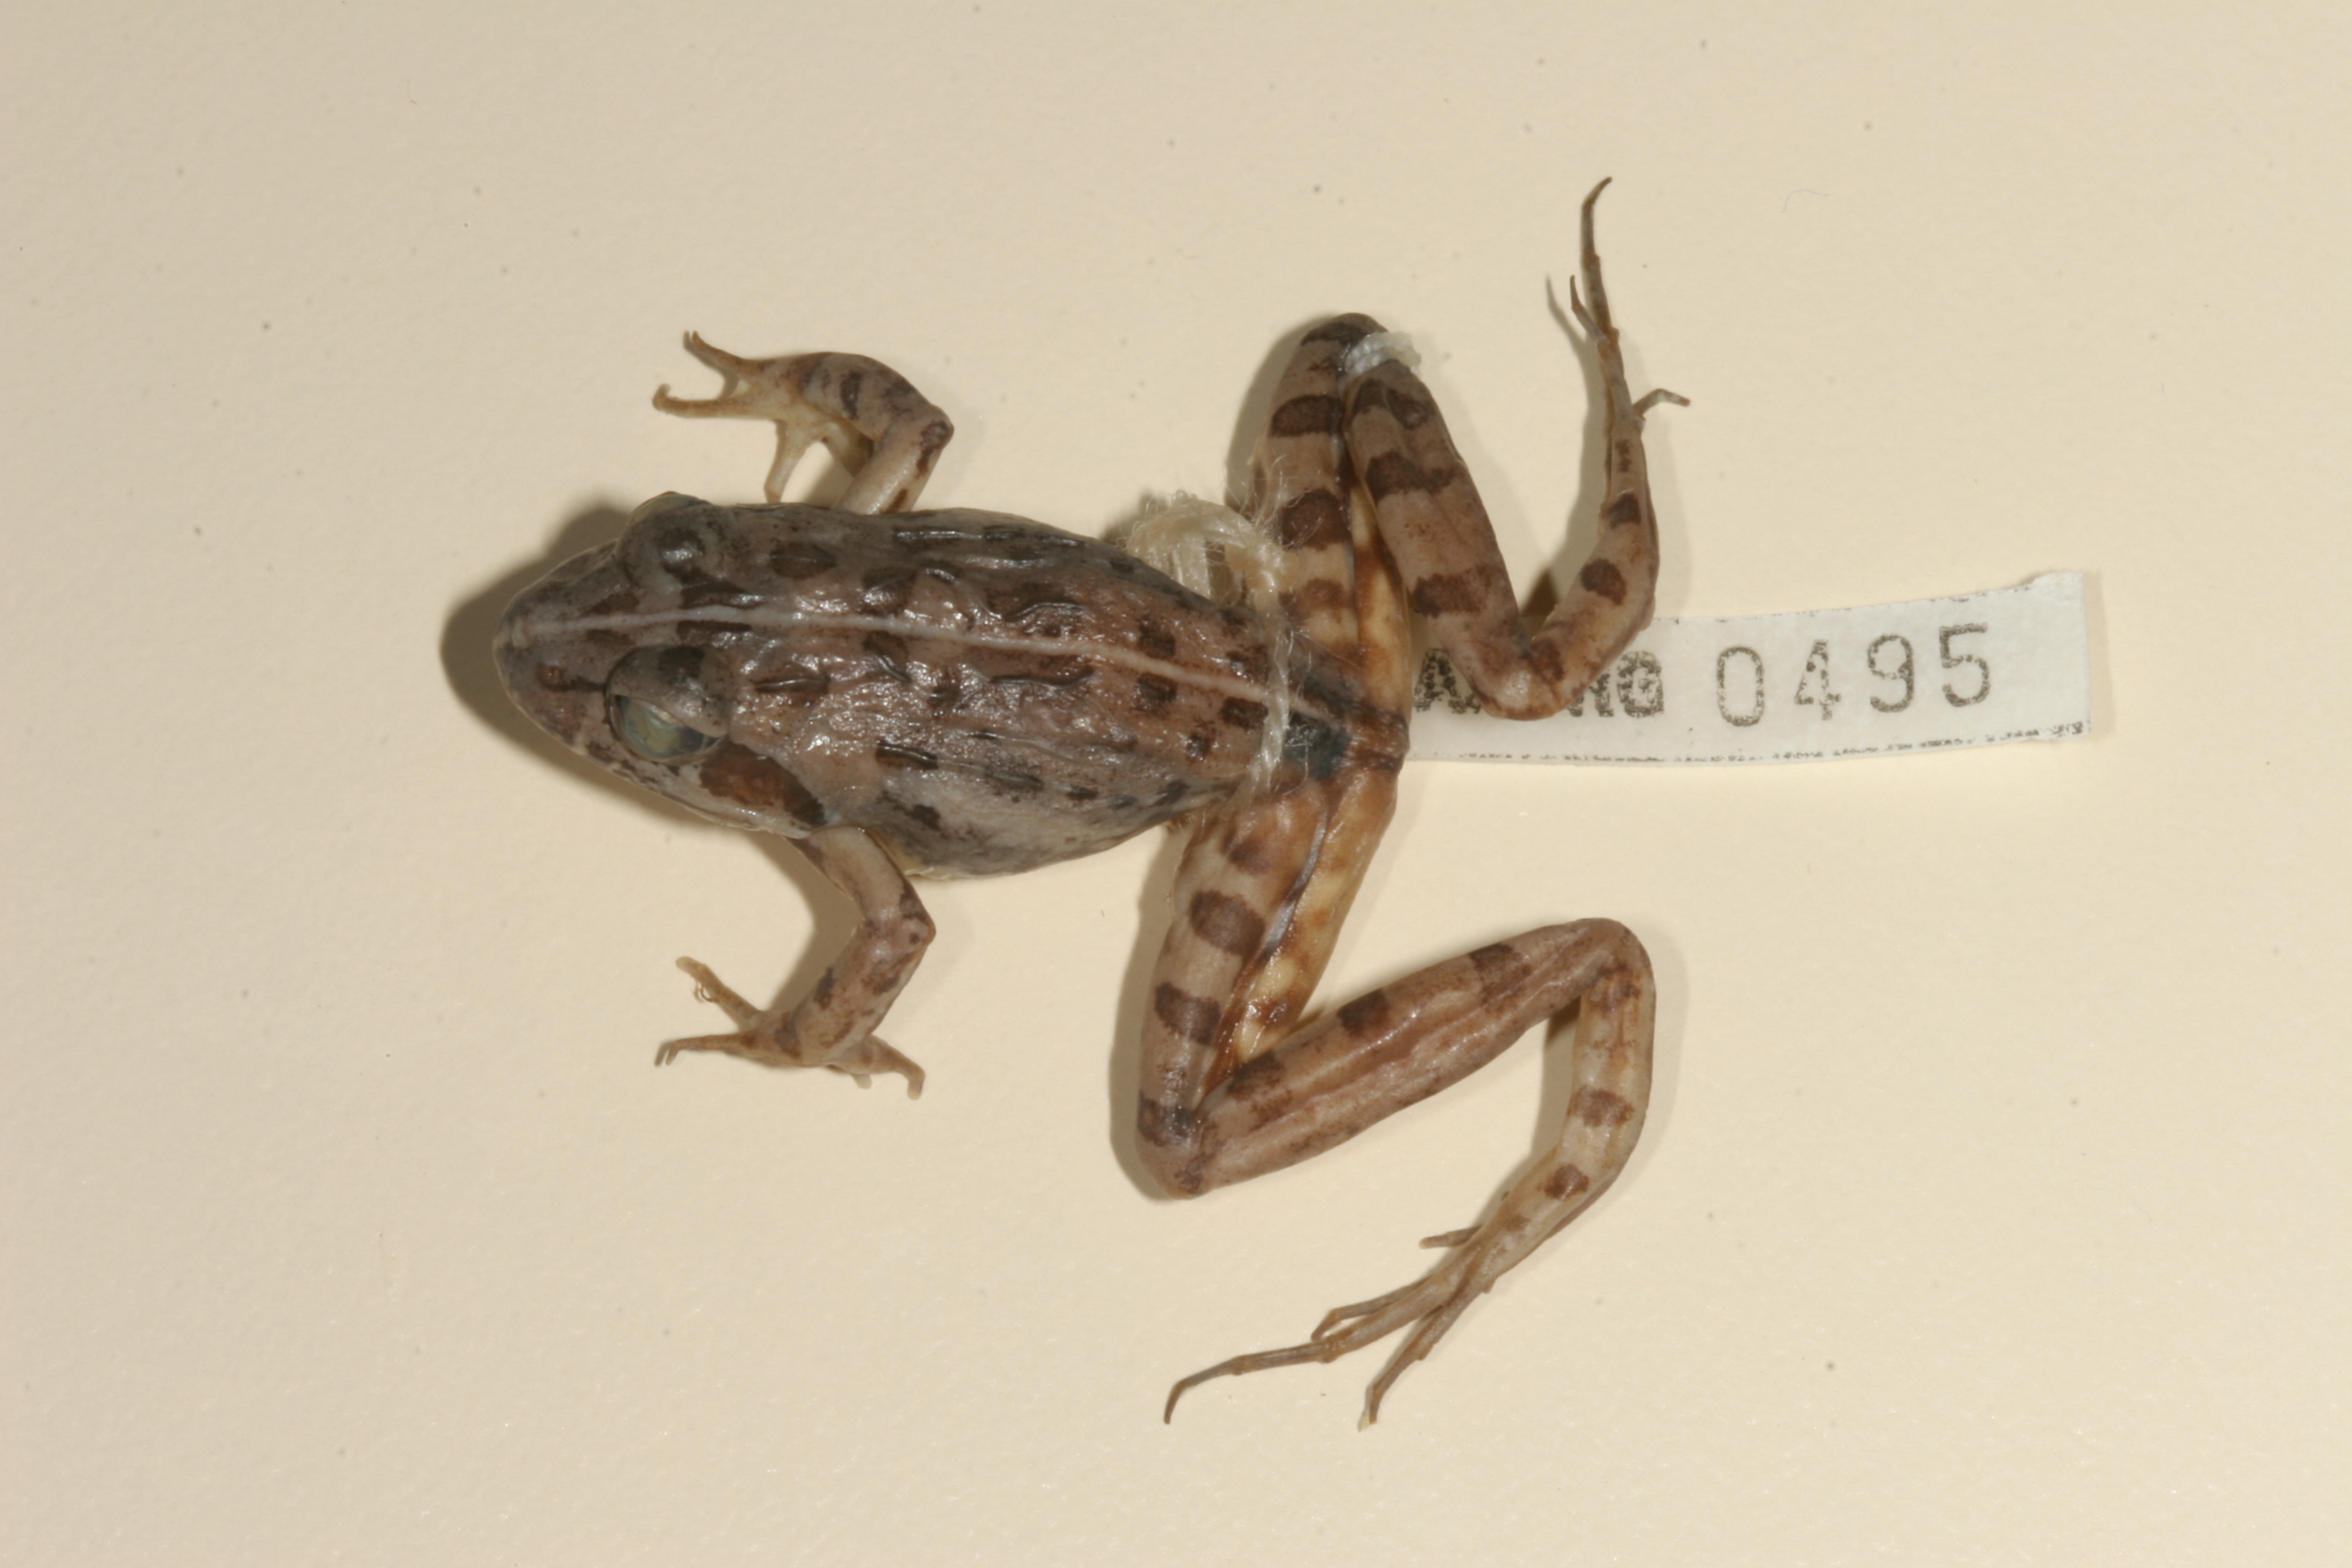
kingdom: Animalia
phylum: Chordata
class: Amphibia
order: Anura
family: Phrynobatrachidae
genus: Phrynobatrachus
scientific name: Phrynobatrachus natalensis
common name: Snoring puddle frog
